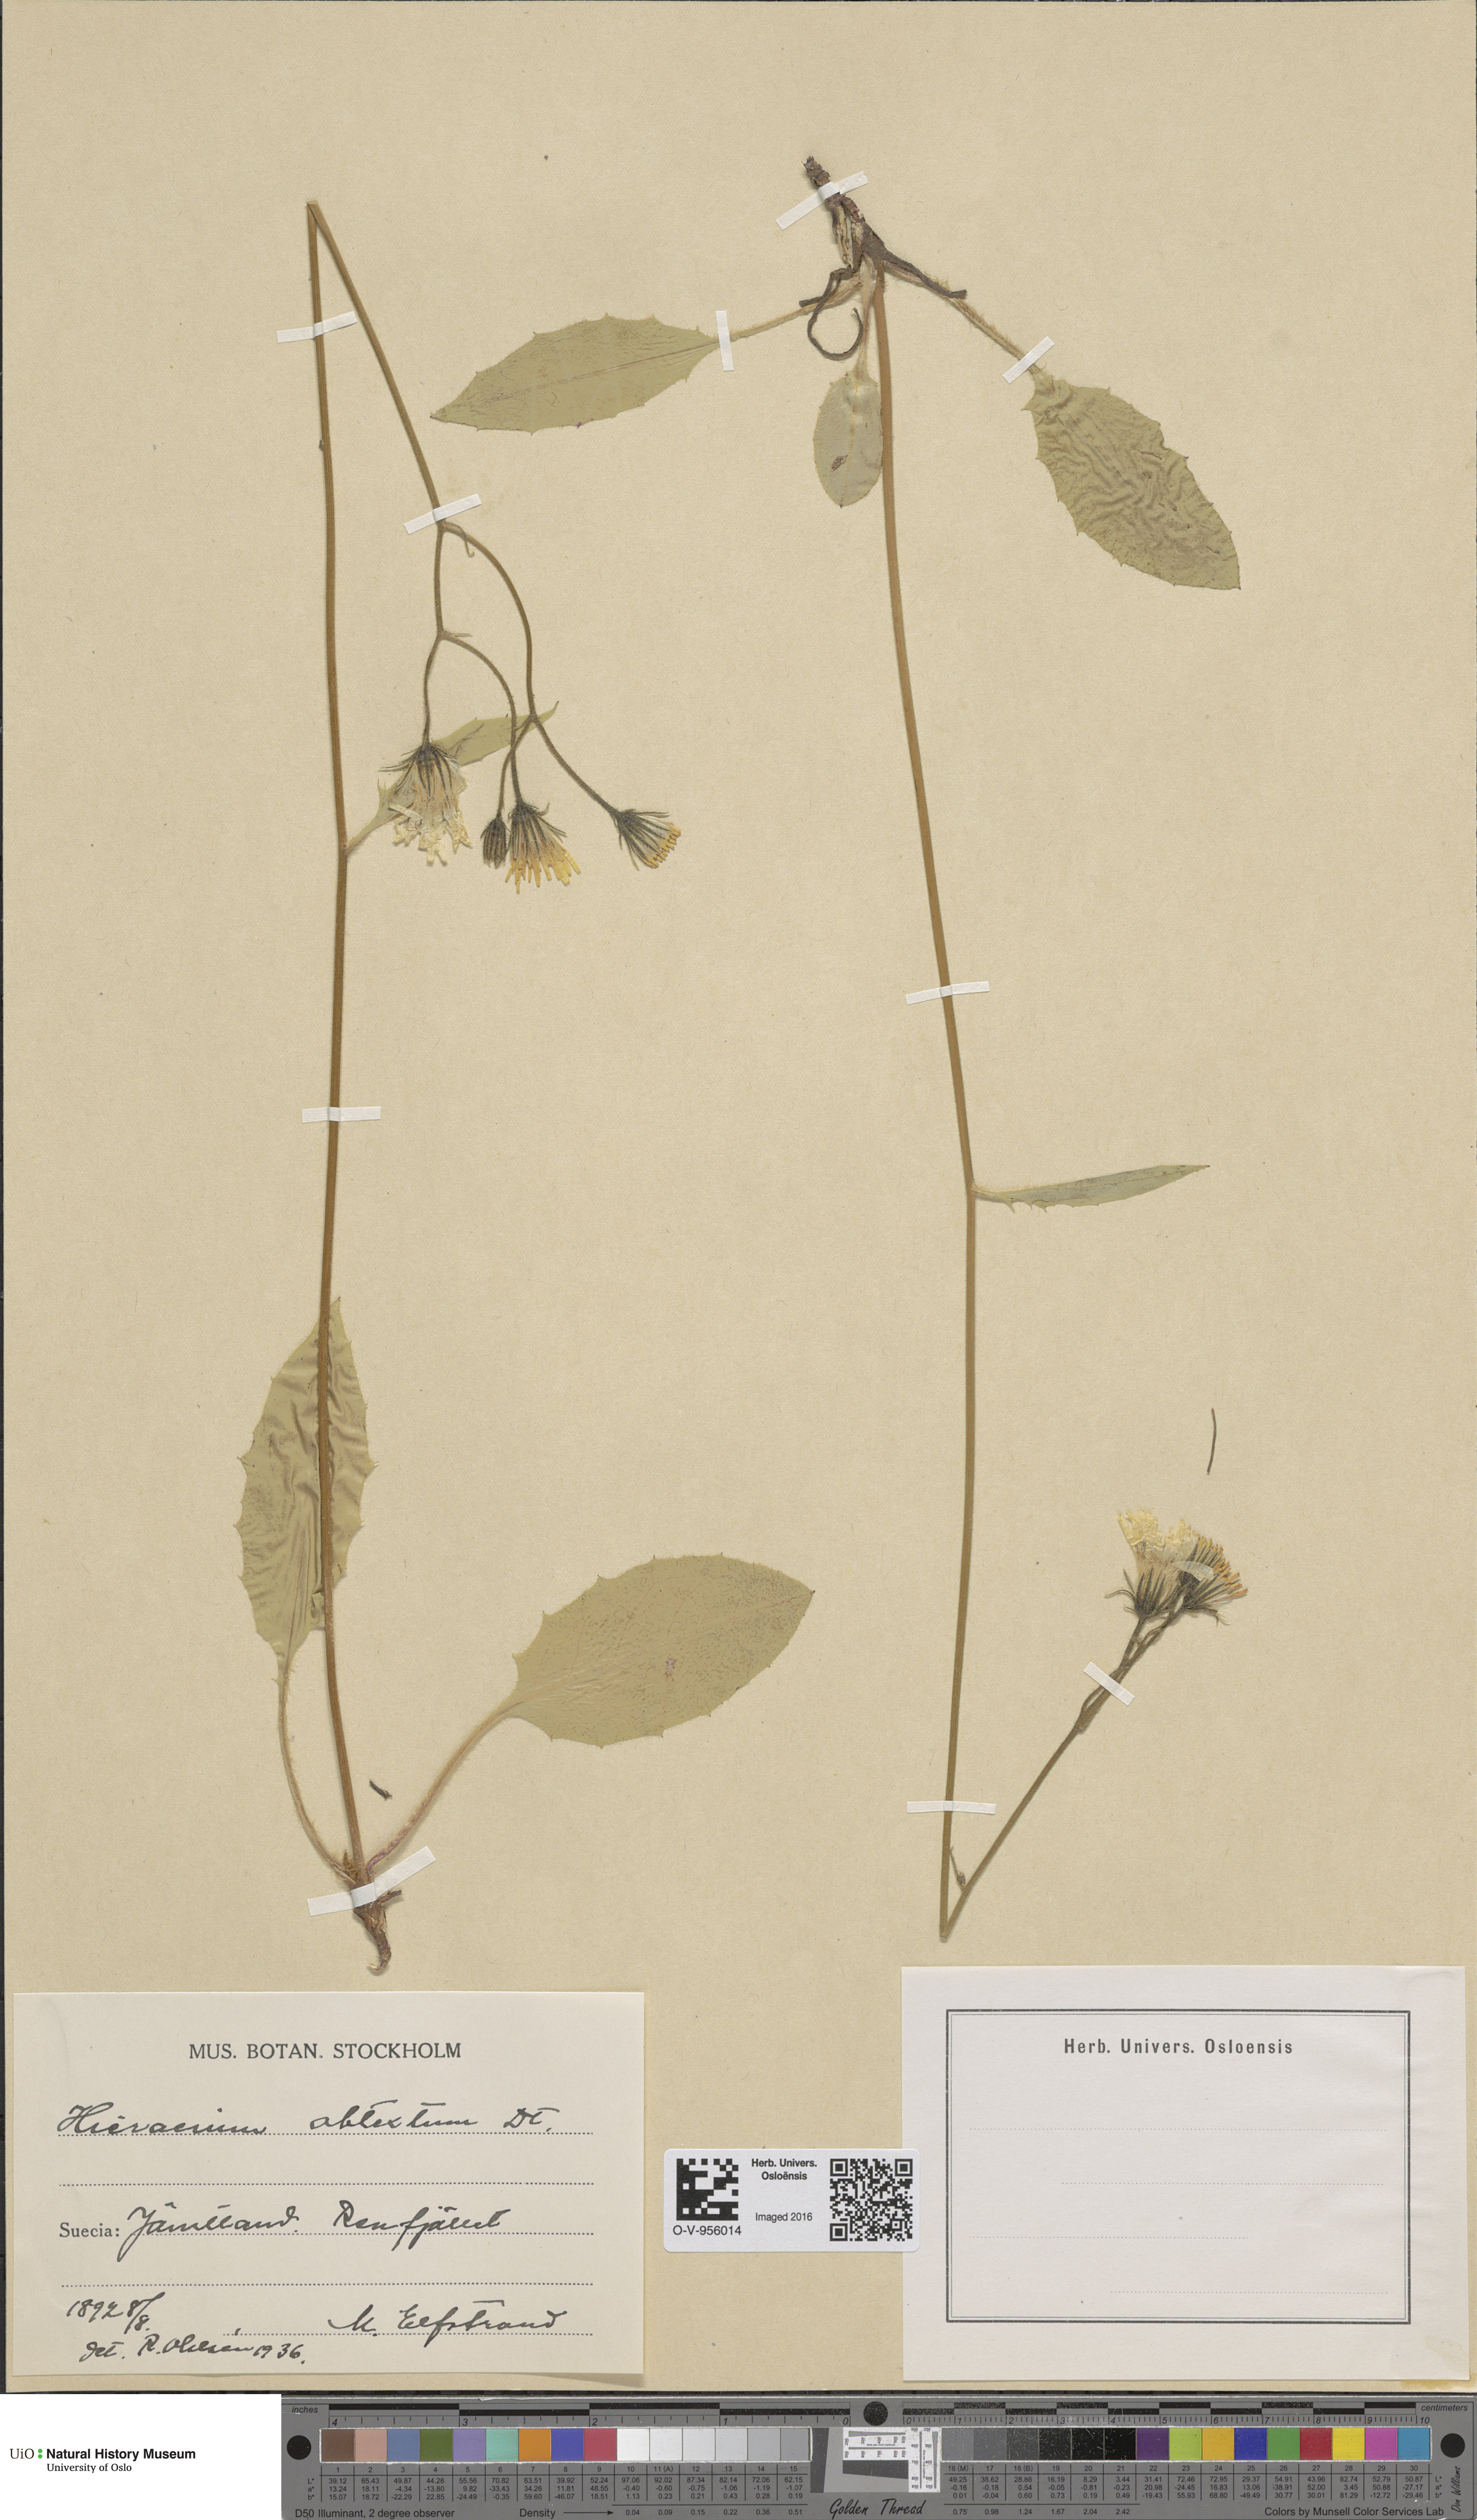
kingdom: Plantae
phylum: Tracheophyta
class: Magnoliopsida
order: Asterales
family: Asteraceae
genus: Hieracium
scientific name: Hieracium obtextum
